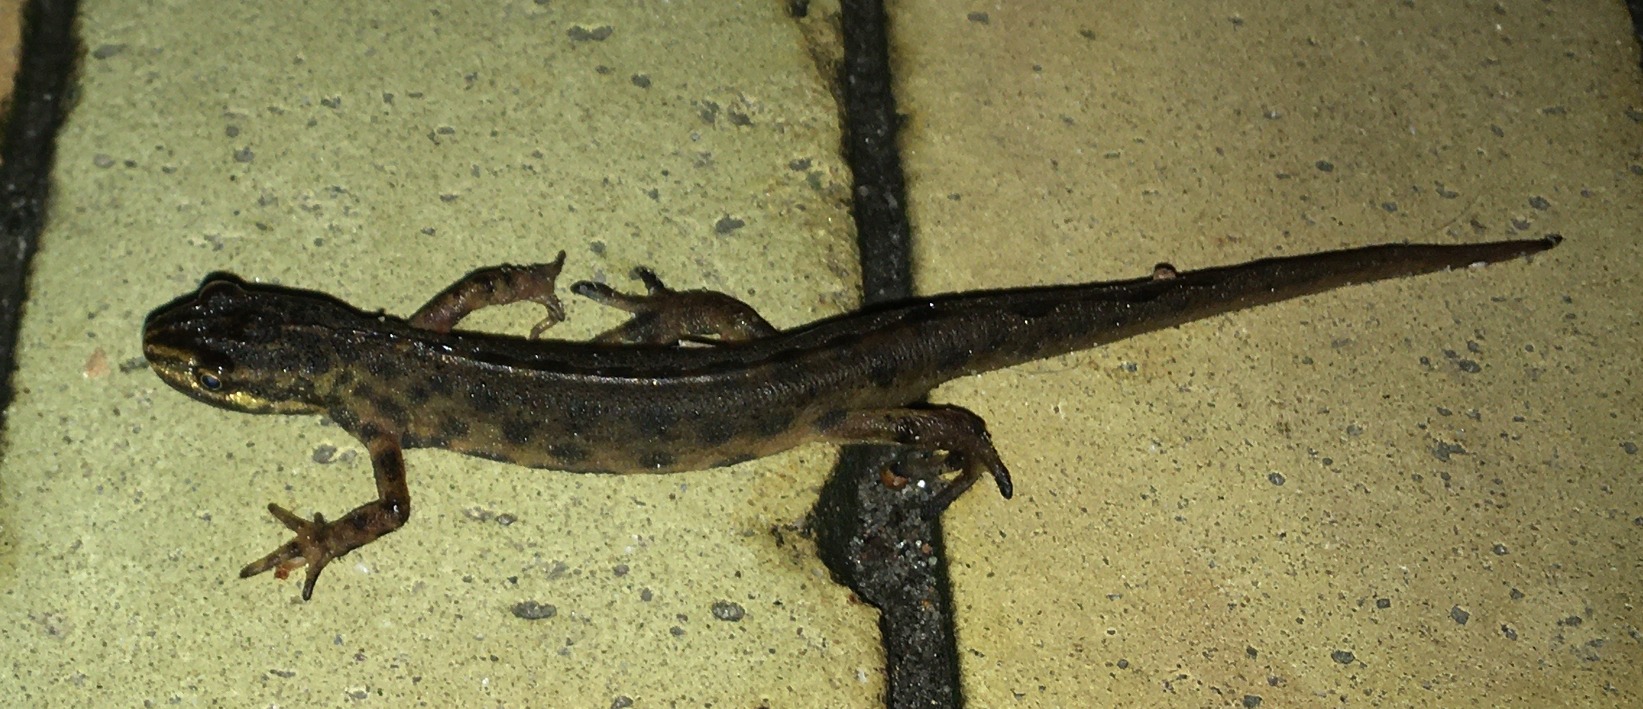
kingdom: Animalia
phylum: Chordata
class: Amphibia
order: Caudata
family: Salamandridae
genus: Lissotriton
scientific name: Lissotriton vulgaris
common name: Lille vandsalamander
